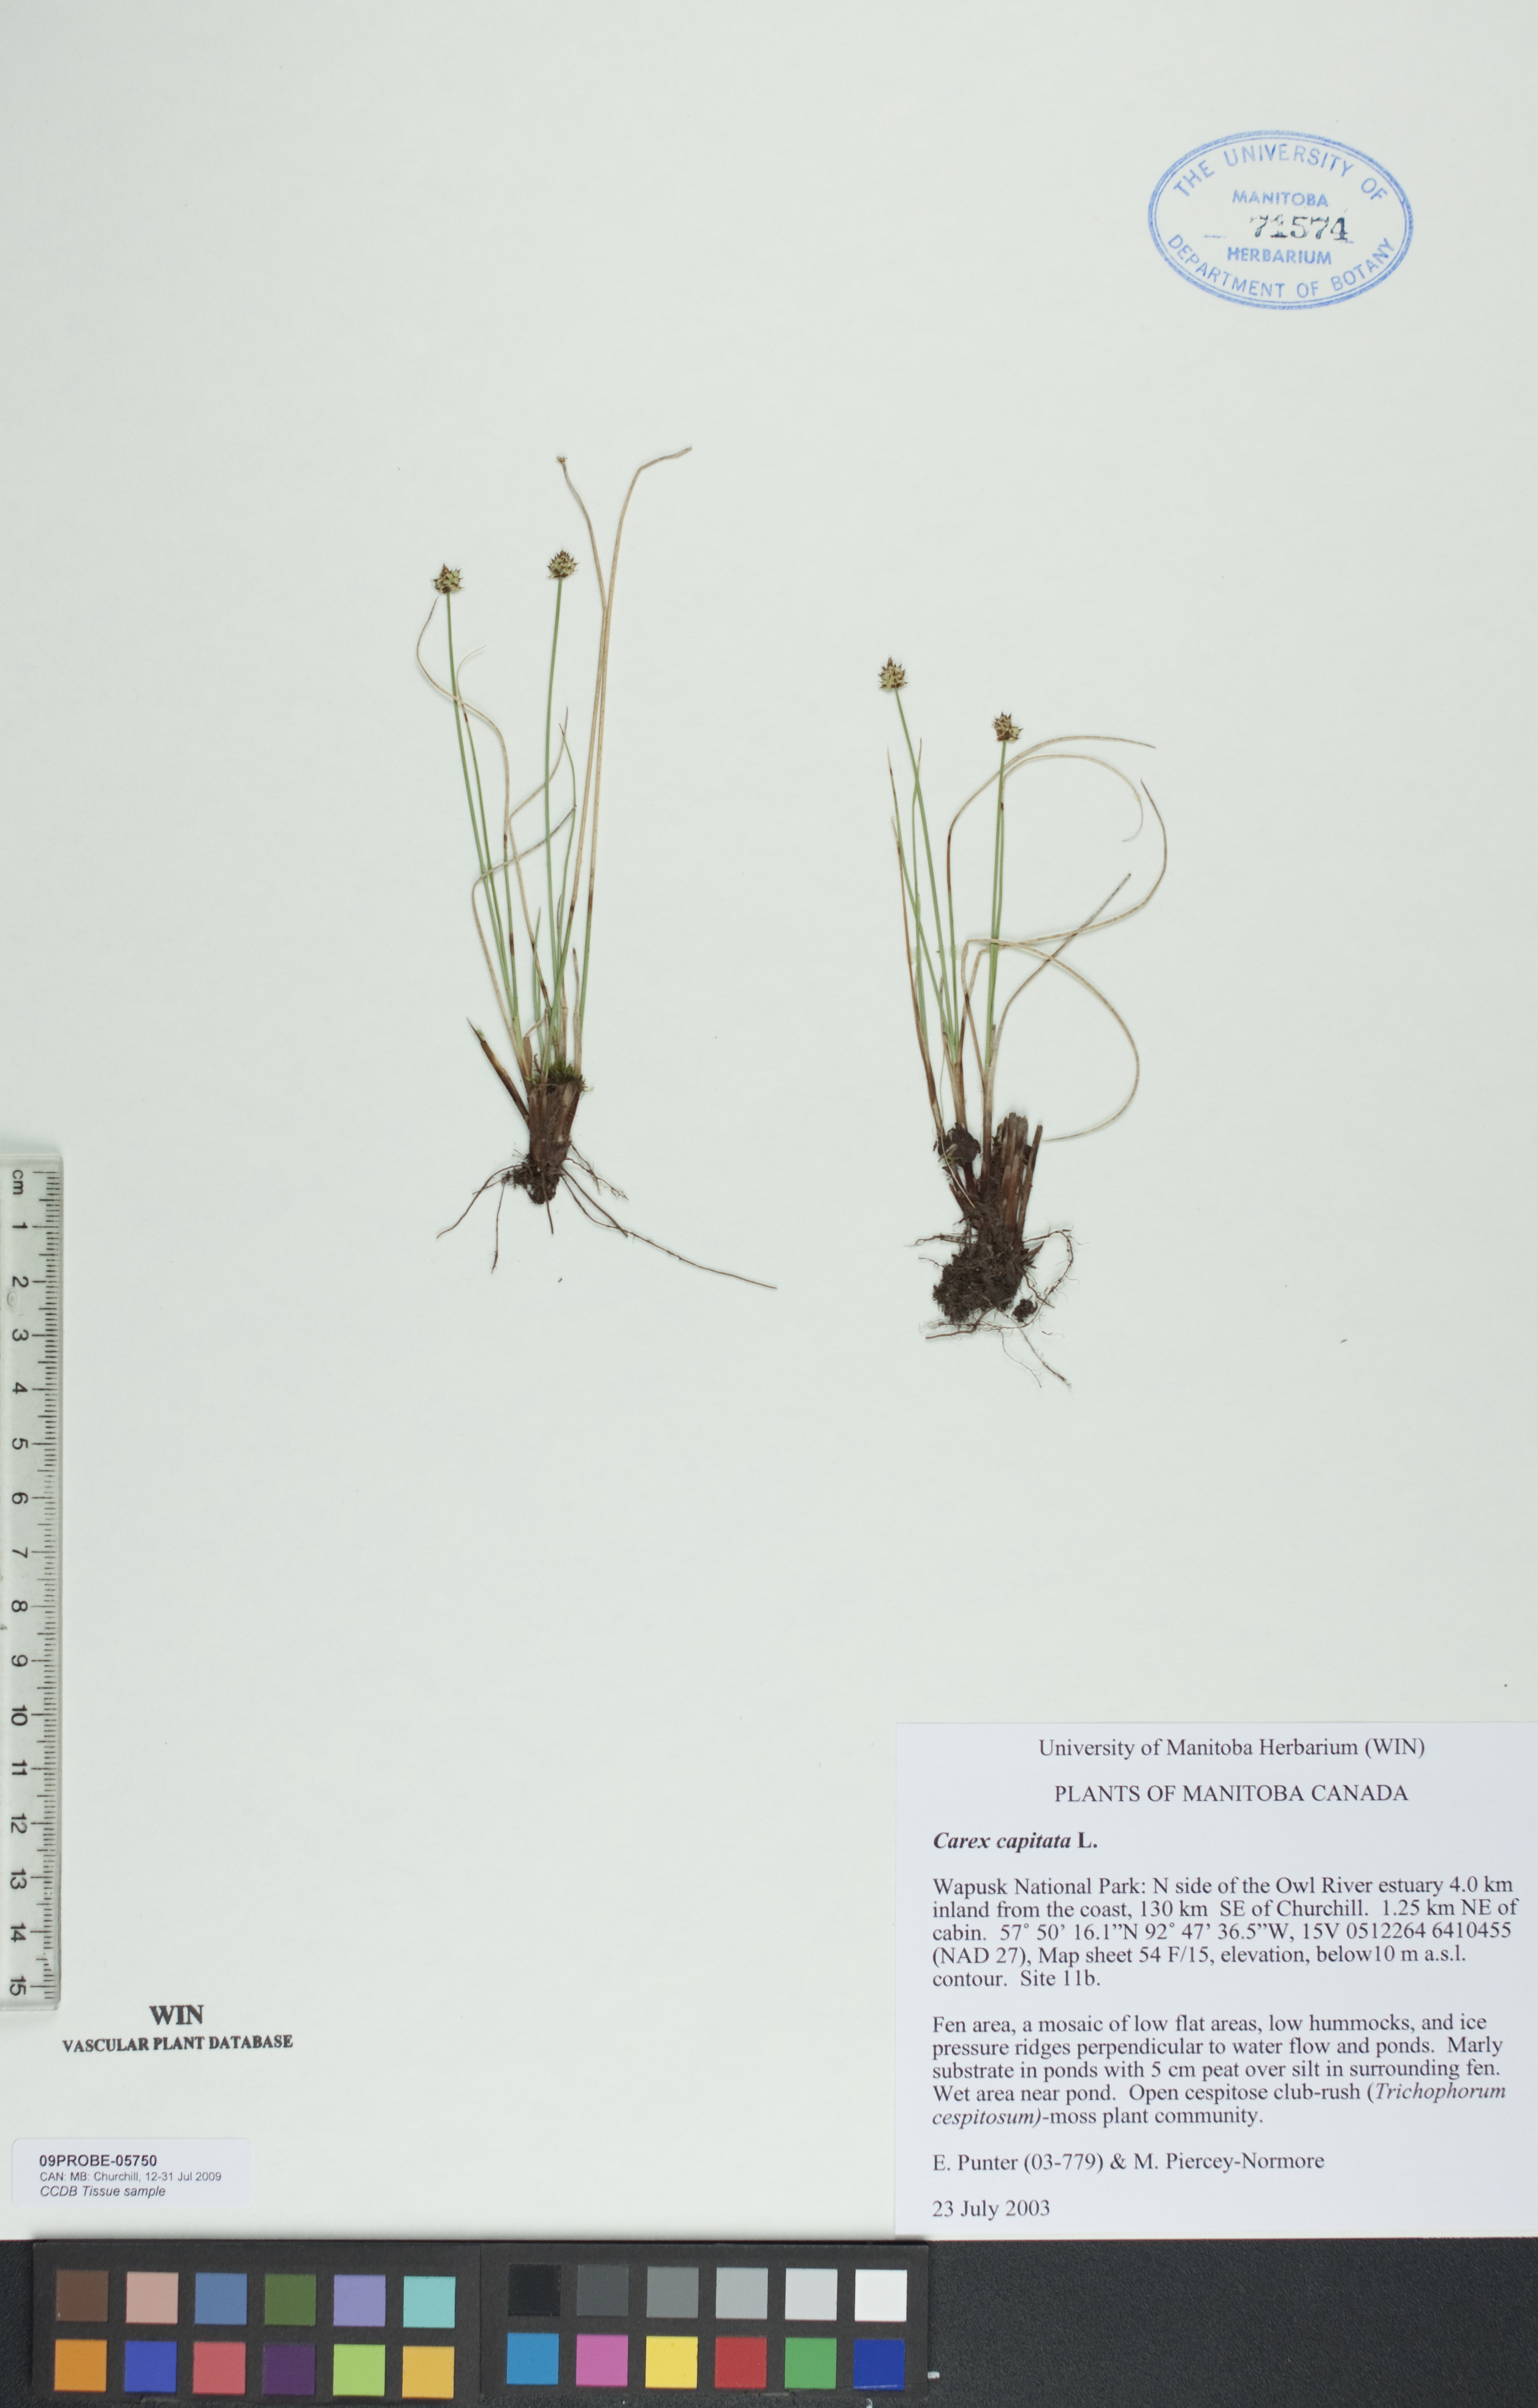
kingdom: Plantae
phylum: Tracheophyta
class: Liliopsida
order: Poales
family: Cyperaceae
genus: Carex
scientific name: Carex capitata
